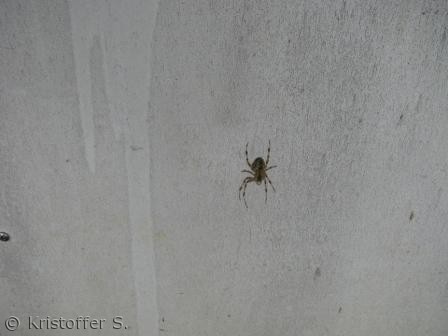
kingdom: Animalia
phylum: Arthropoda
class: Arachnida
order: Araneae
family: Araneidae
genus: Araneus
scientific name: Araneus diadematus
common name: Korsedderkop
